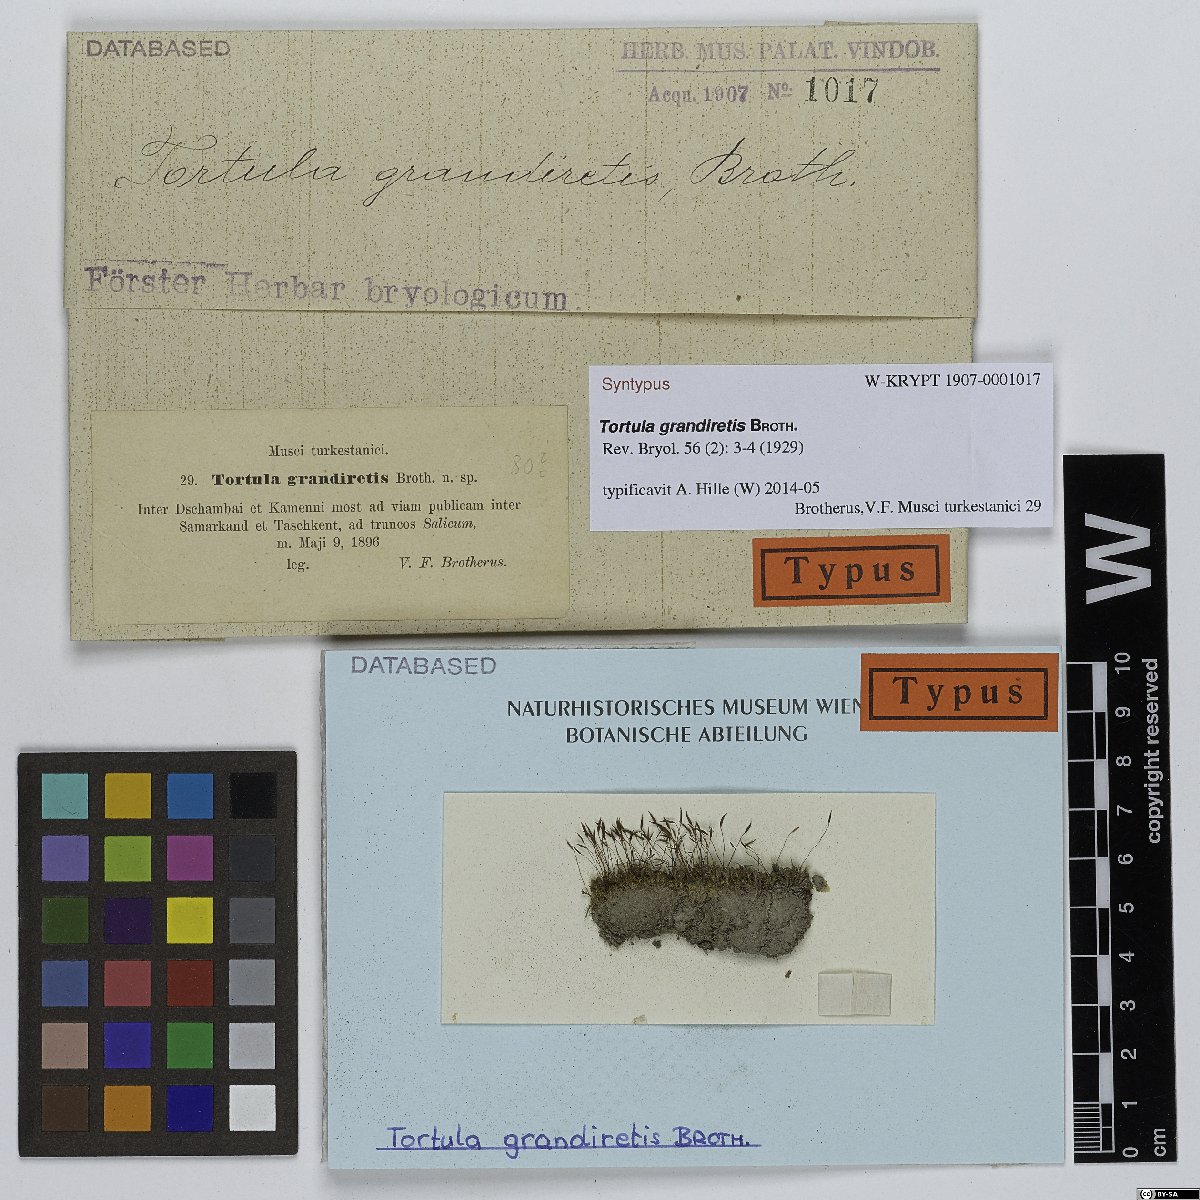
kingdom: Plantae
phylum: Bryophyta
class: Bryopsida
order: Pottiales
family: Pottiaceae
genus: Tortula
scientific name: Tortula grandiretis
